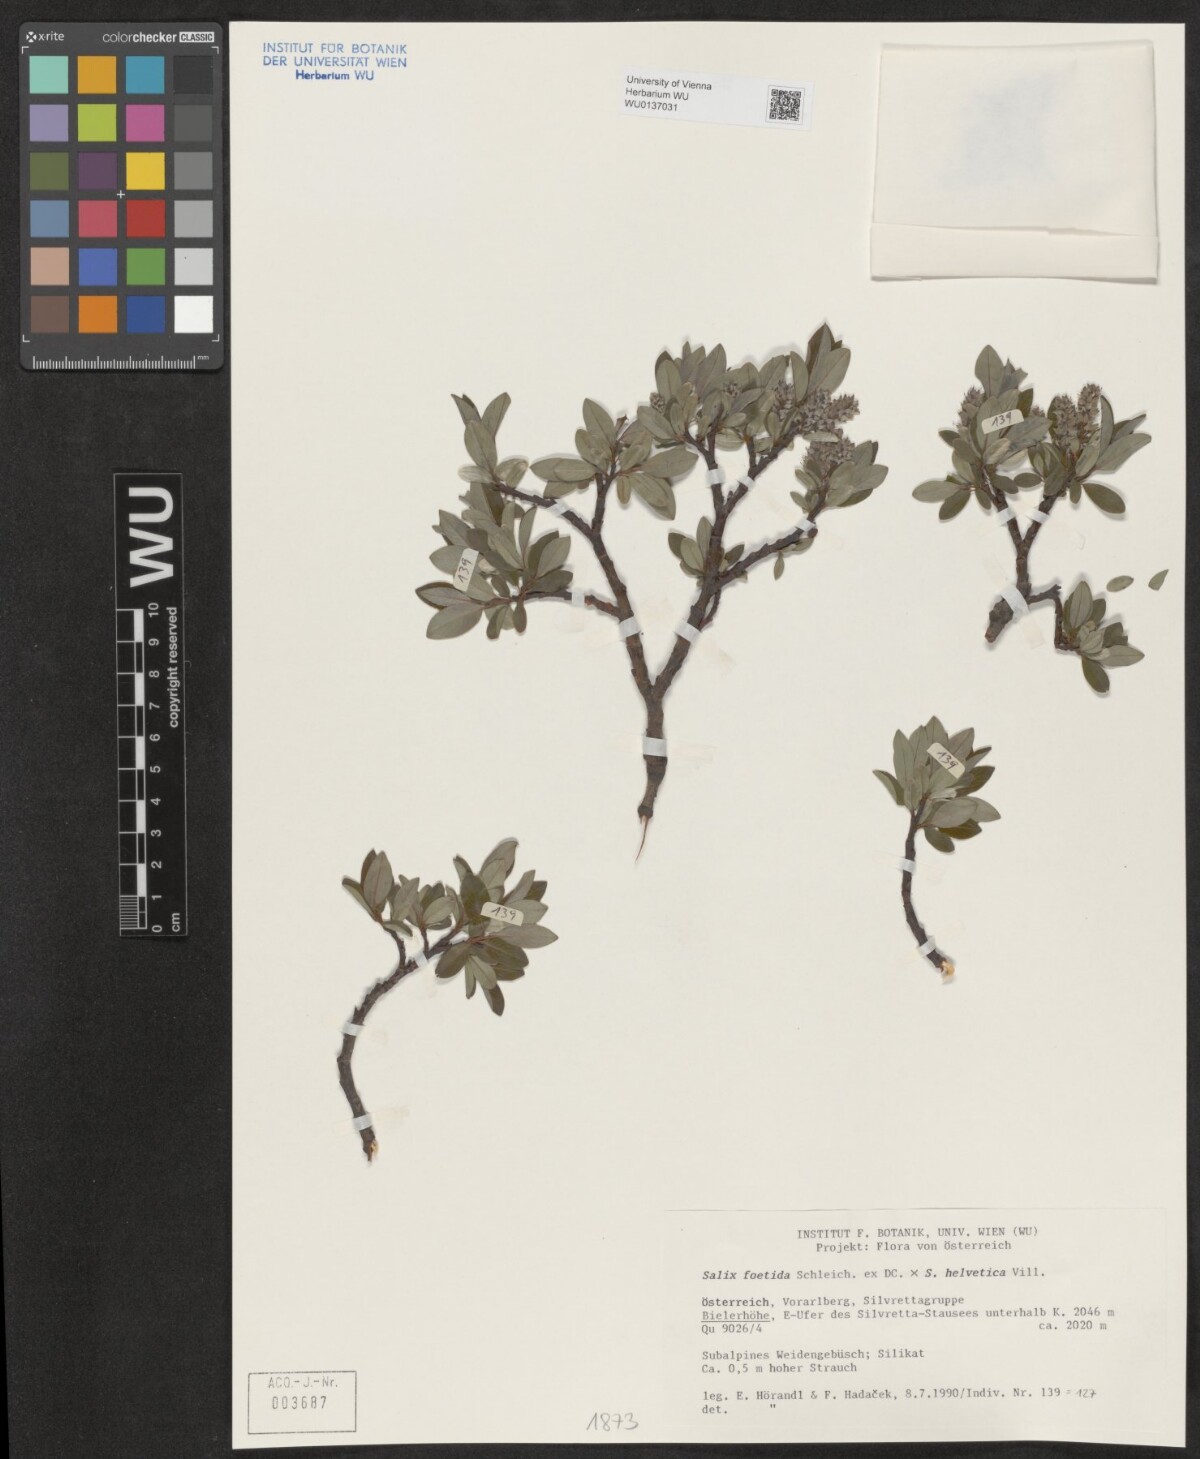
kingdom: Plantae
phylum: Tracheophyta
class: Magnoliopsida
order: Malpighiales
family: Salicaceae
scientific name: Salicaceae
